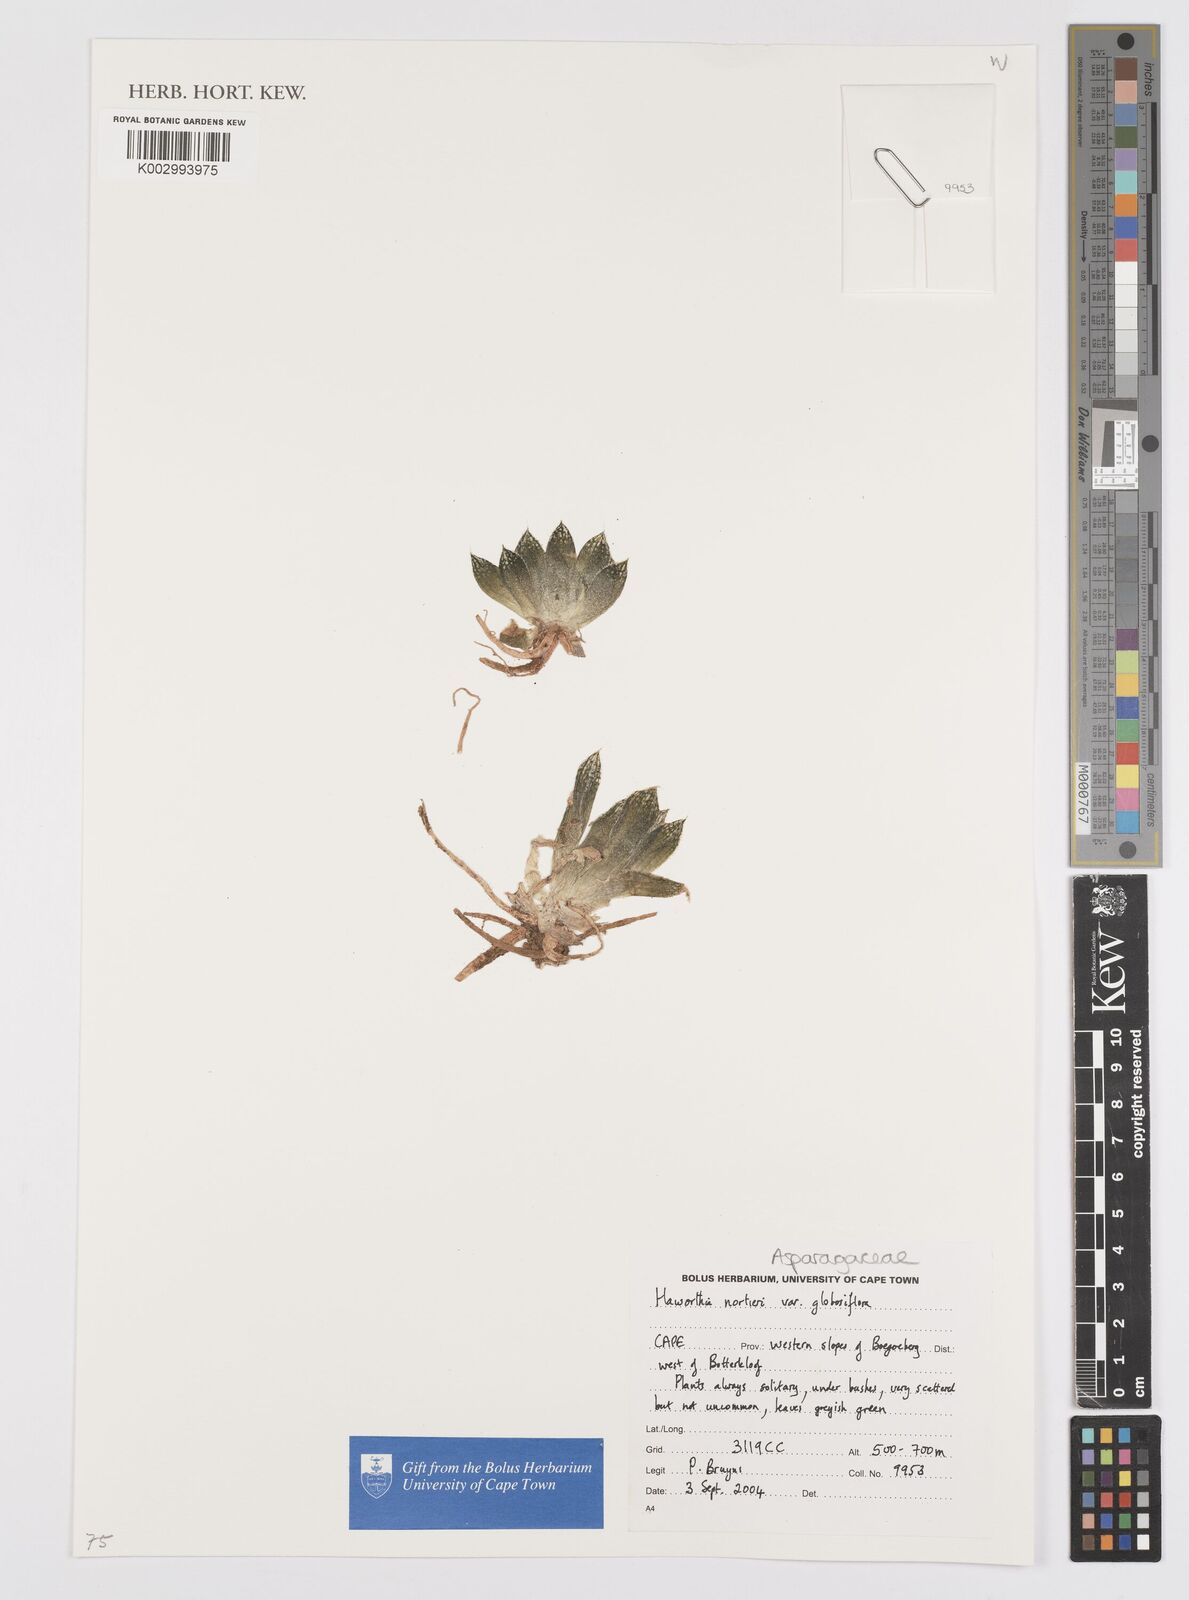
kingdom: Plantae
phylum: Tracheophyta
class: Liliopsida
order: Asparagales
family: Asphodelaceae
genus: Haworthia
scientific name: Haworthia nortieri
